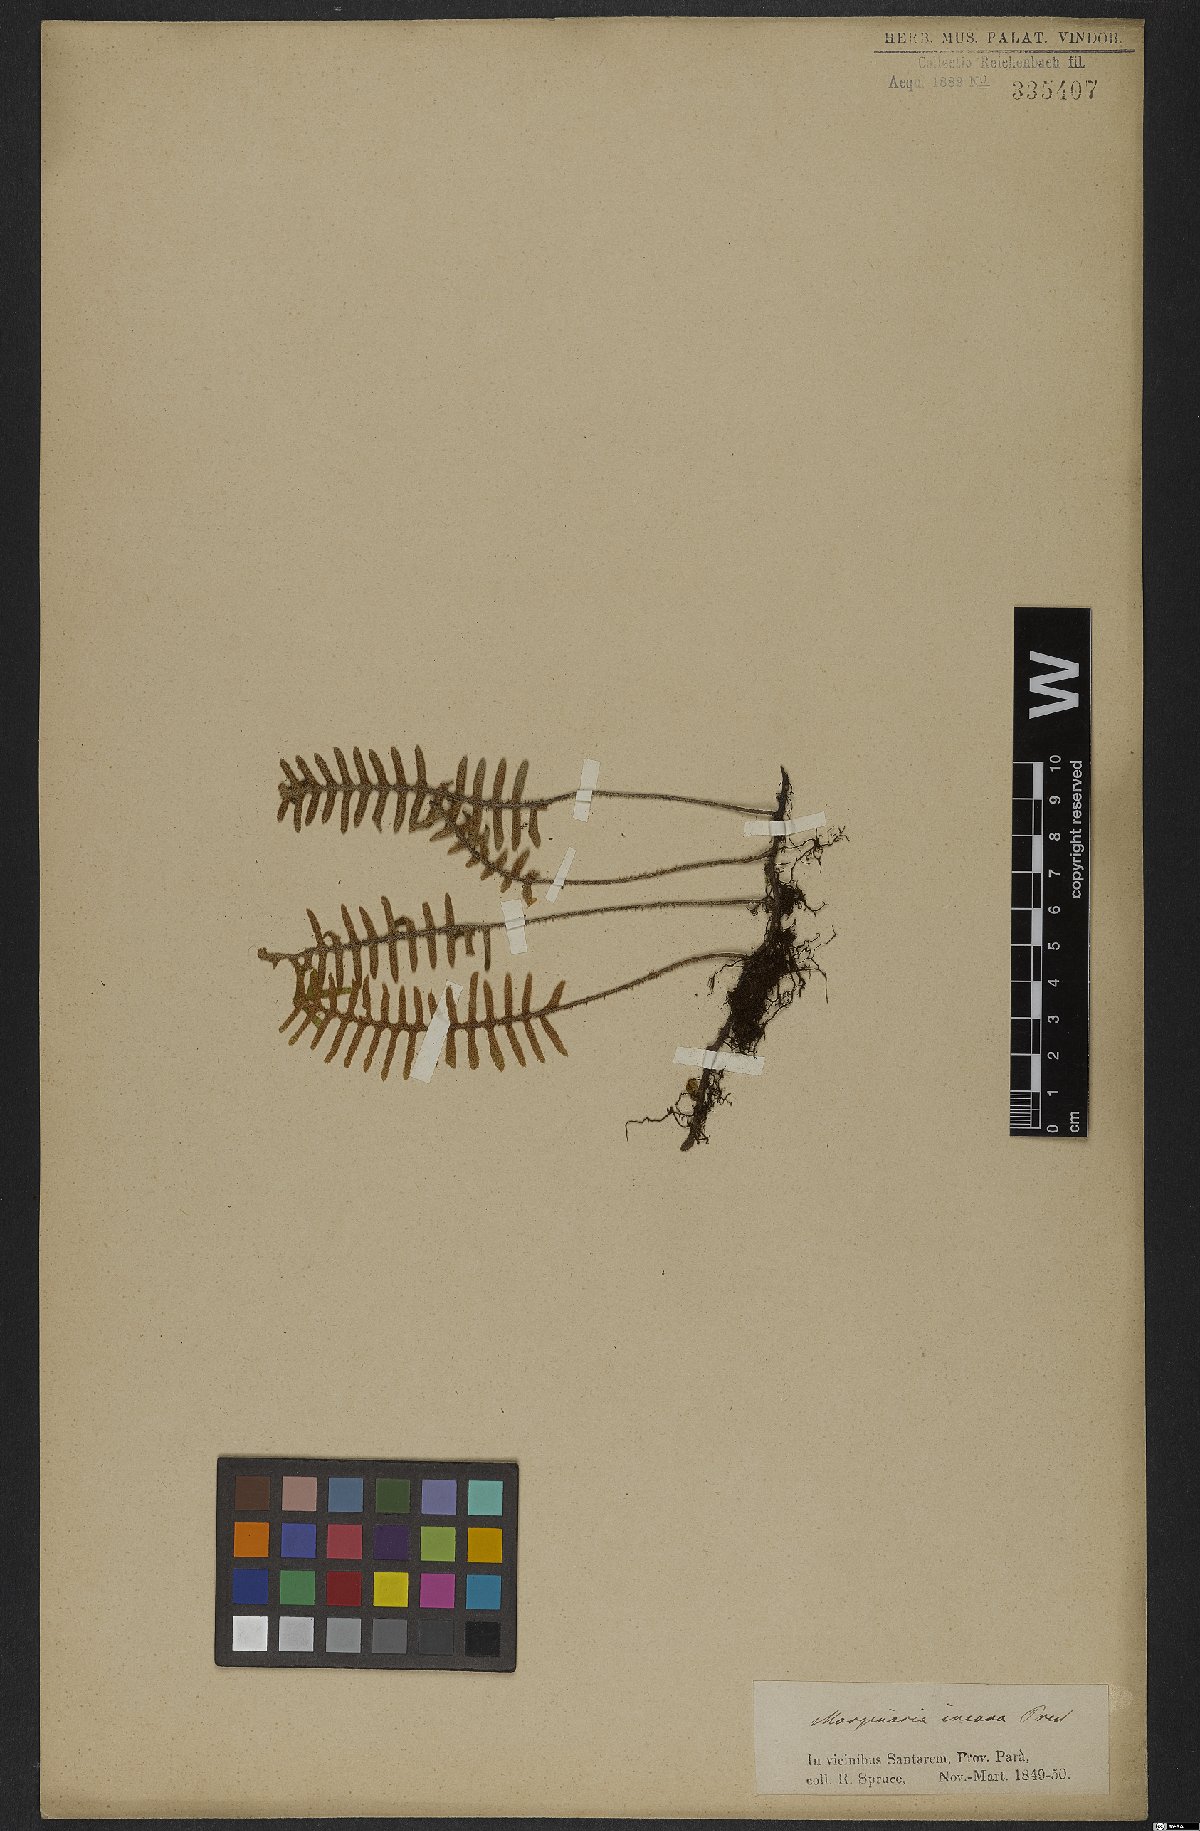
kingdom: Plantae
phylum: Tracheophyta
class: Polypodiopsida
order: Polypodiales
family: Polypodiaceae
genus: Pleopeltis
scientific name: Pleopeltis polypodioides
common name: Resurrection fern
